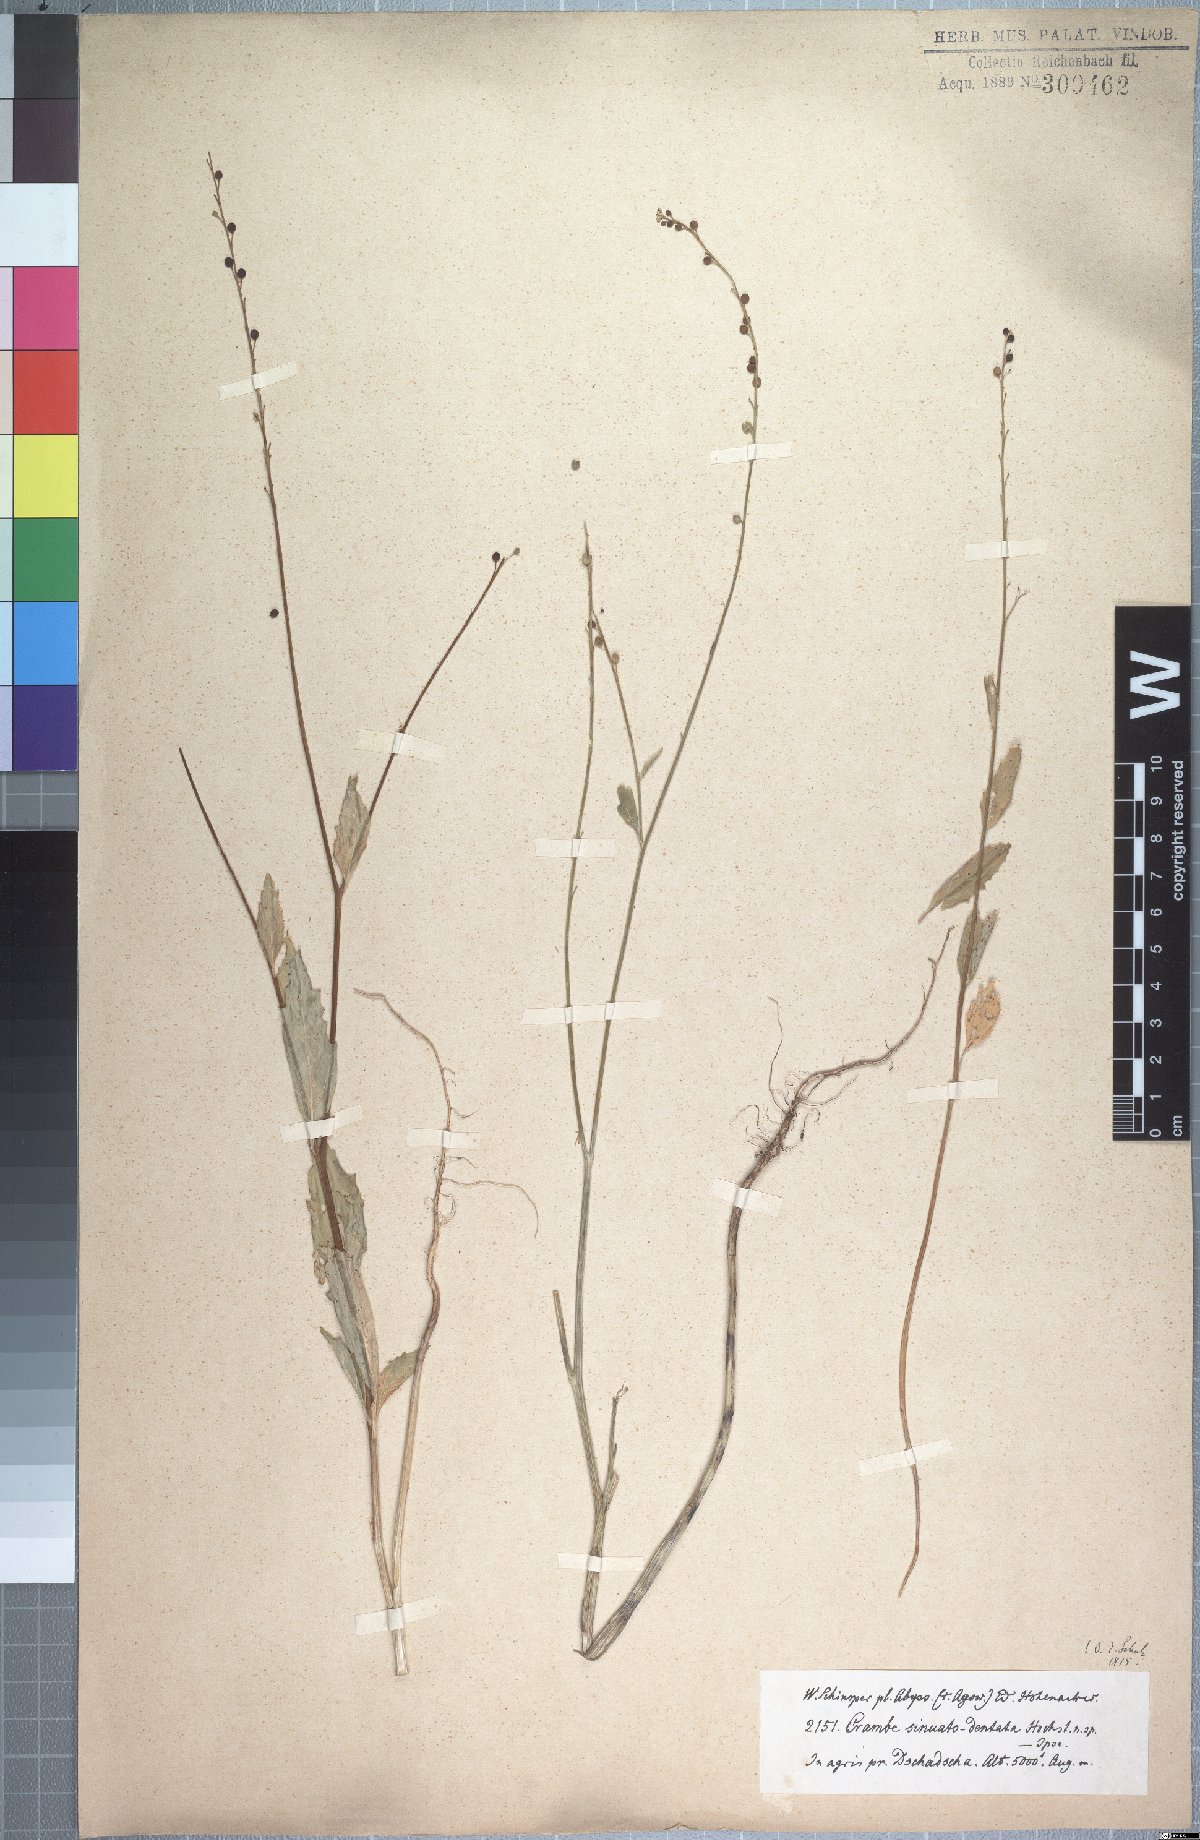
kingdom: Plantae
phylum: Tracheophyta
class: Magnoliopsida
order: Brassicales
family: Brassicaceae
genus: Crambe
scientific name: Crambe sinuato-dentata
